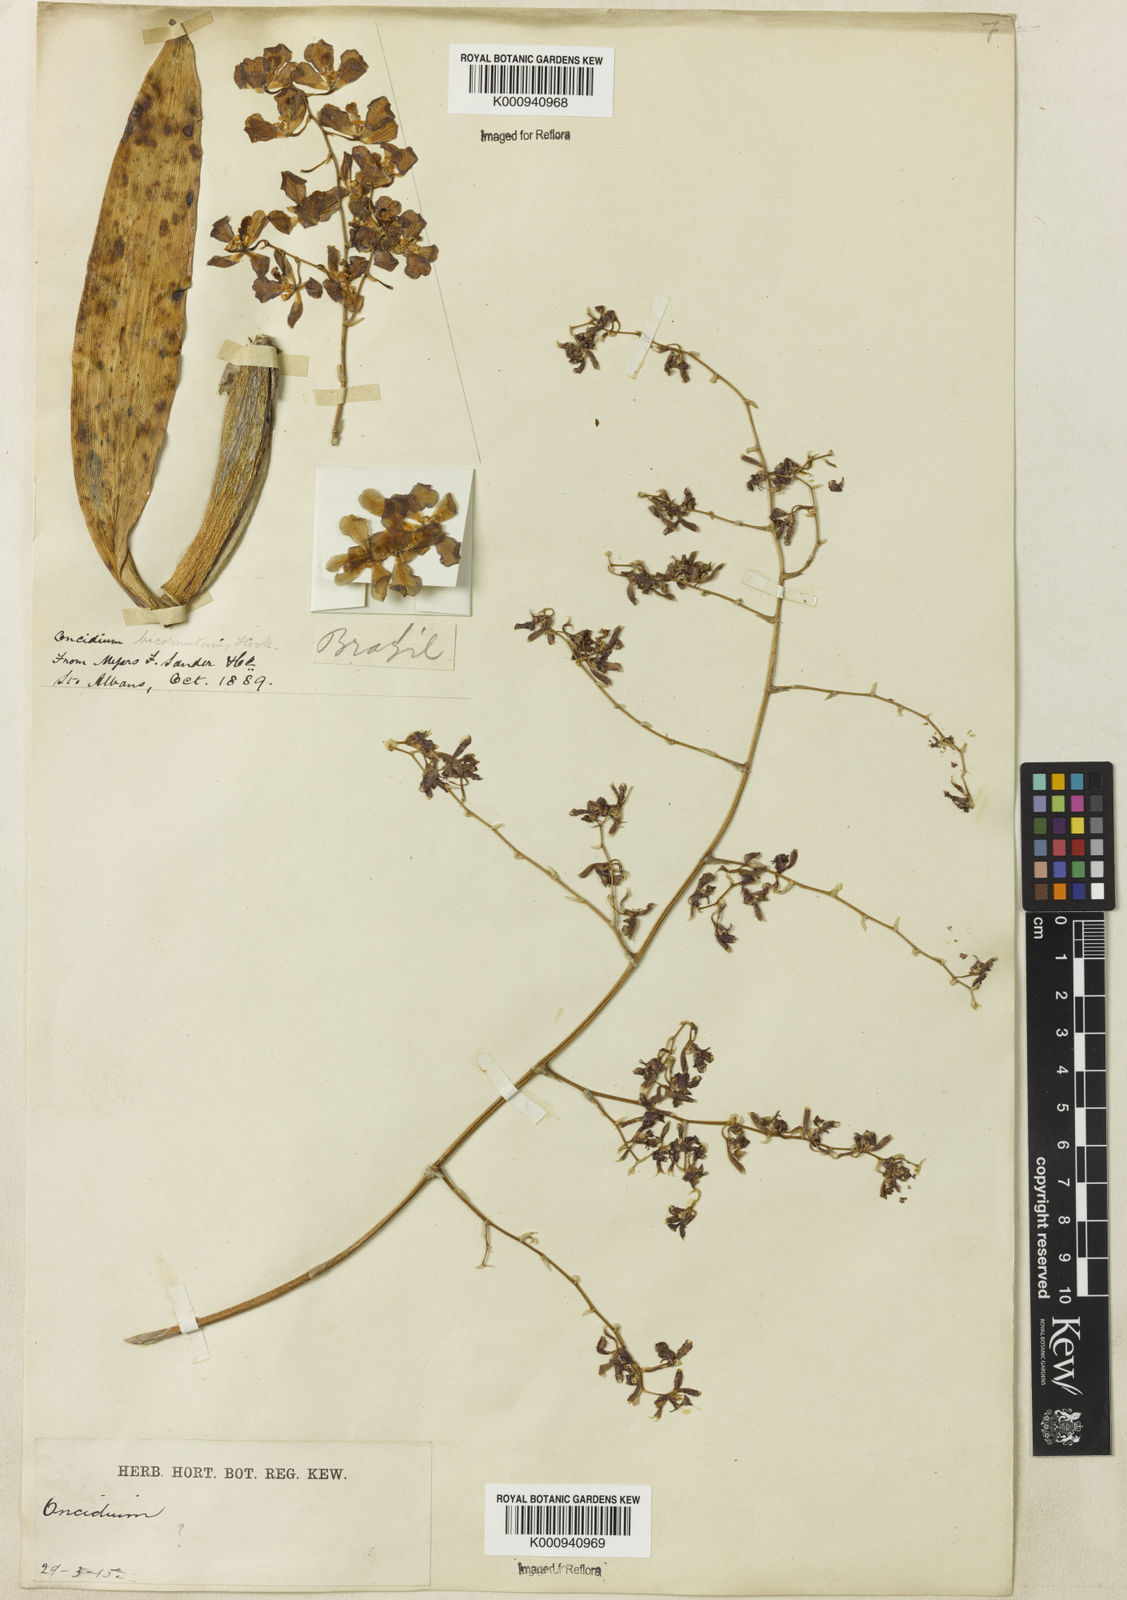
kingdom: Plantae
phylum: Tracheophyta
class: Liliopsida
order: Asparagales
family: Orchidaceae
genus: Oncidium
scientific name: Oncidium
